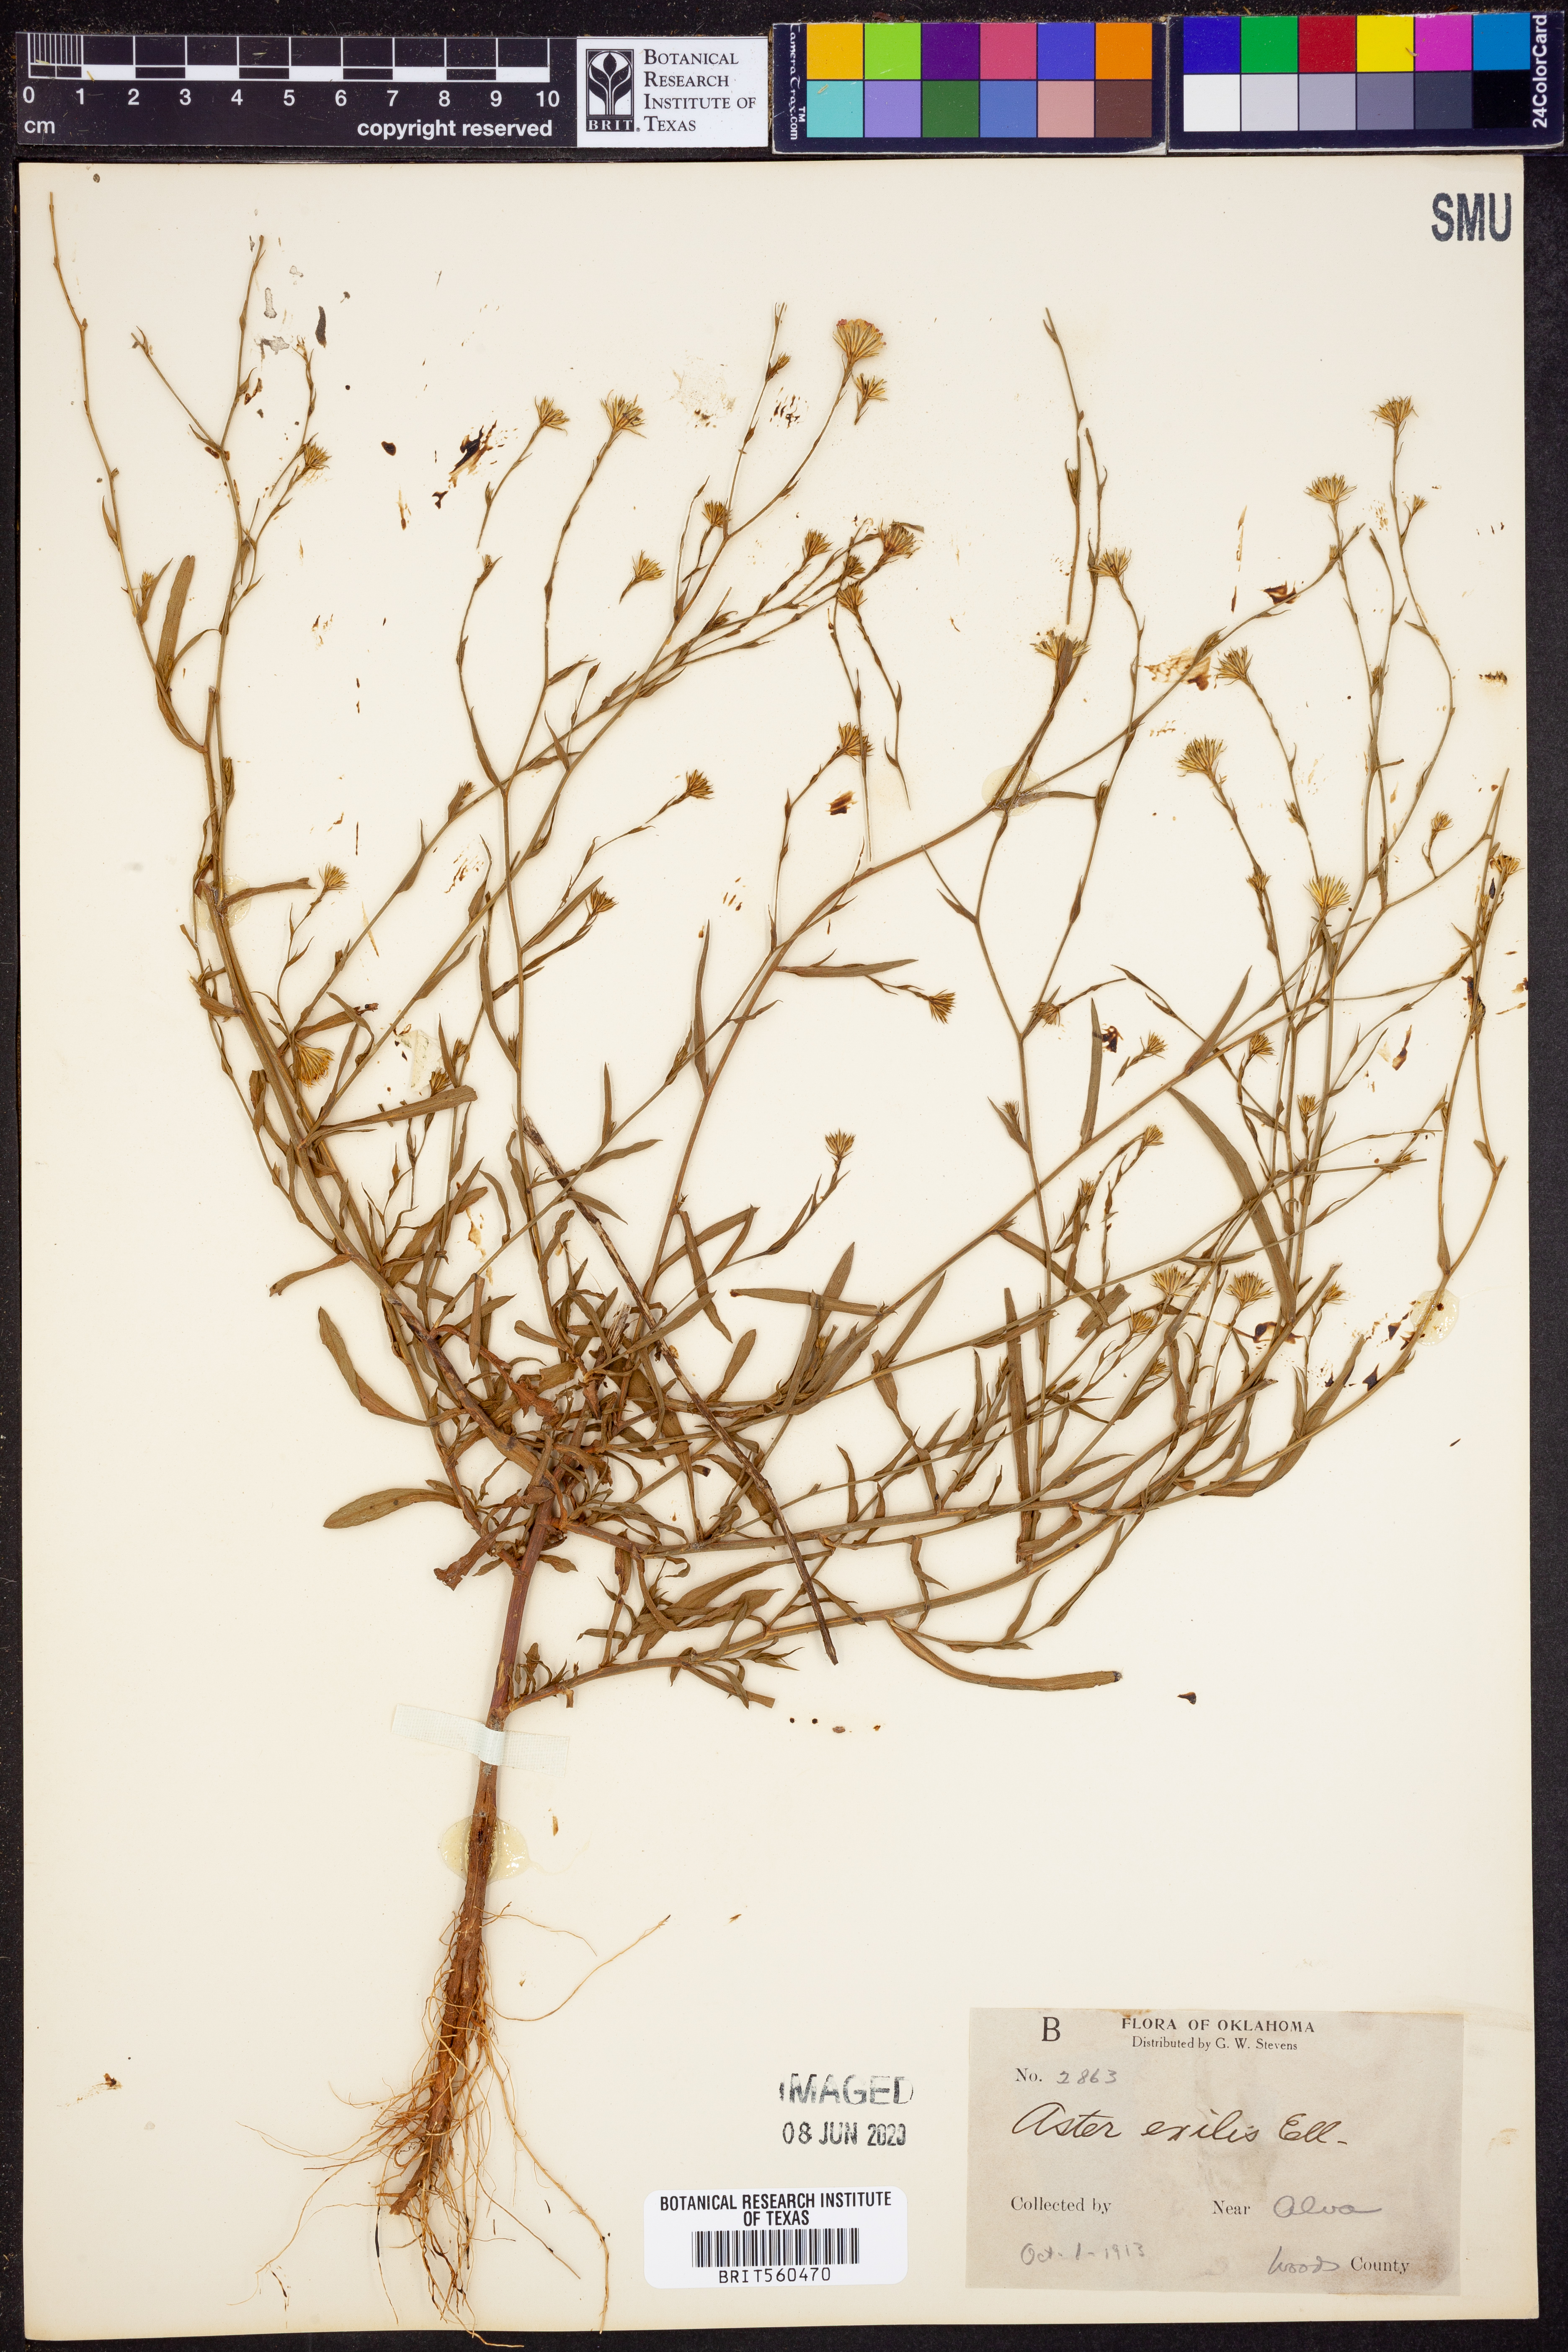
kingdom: Plantae
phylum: Tracheophyta
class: Magnoliopsida
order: Asterales
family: Asteraceae
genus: Symphyotrichum
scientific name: Symphyotrichum expansum
